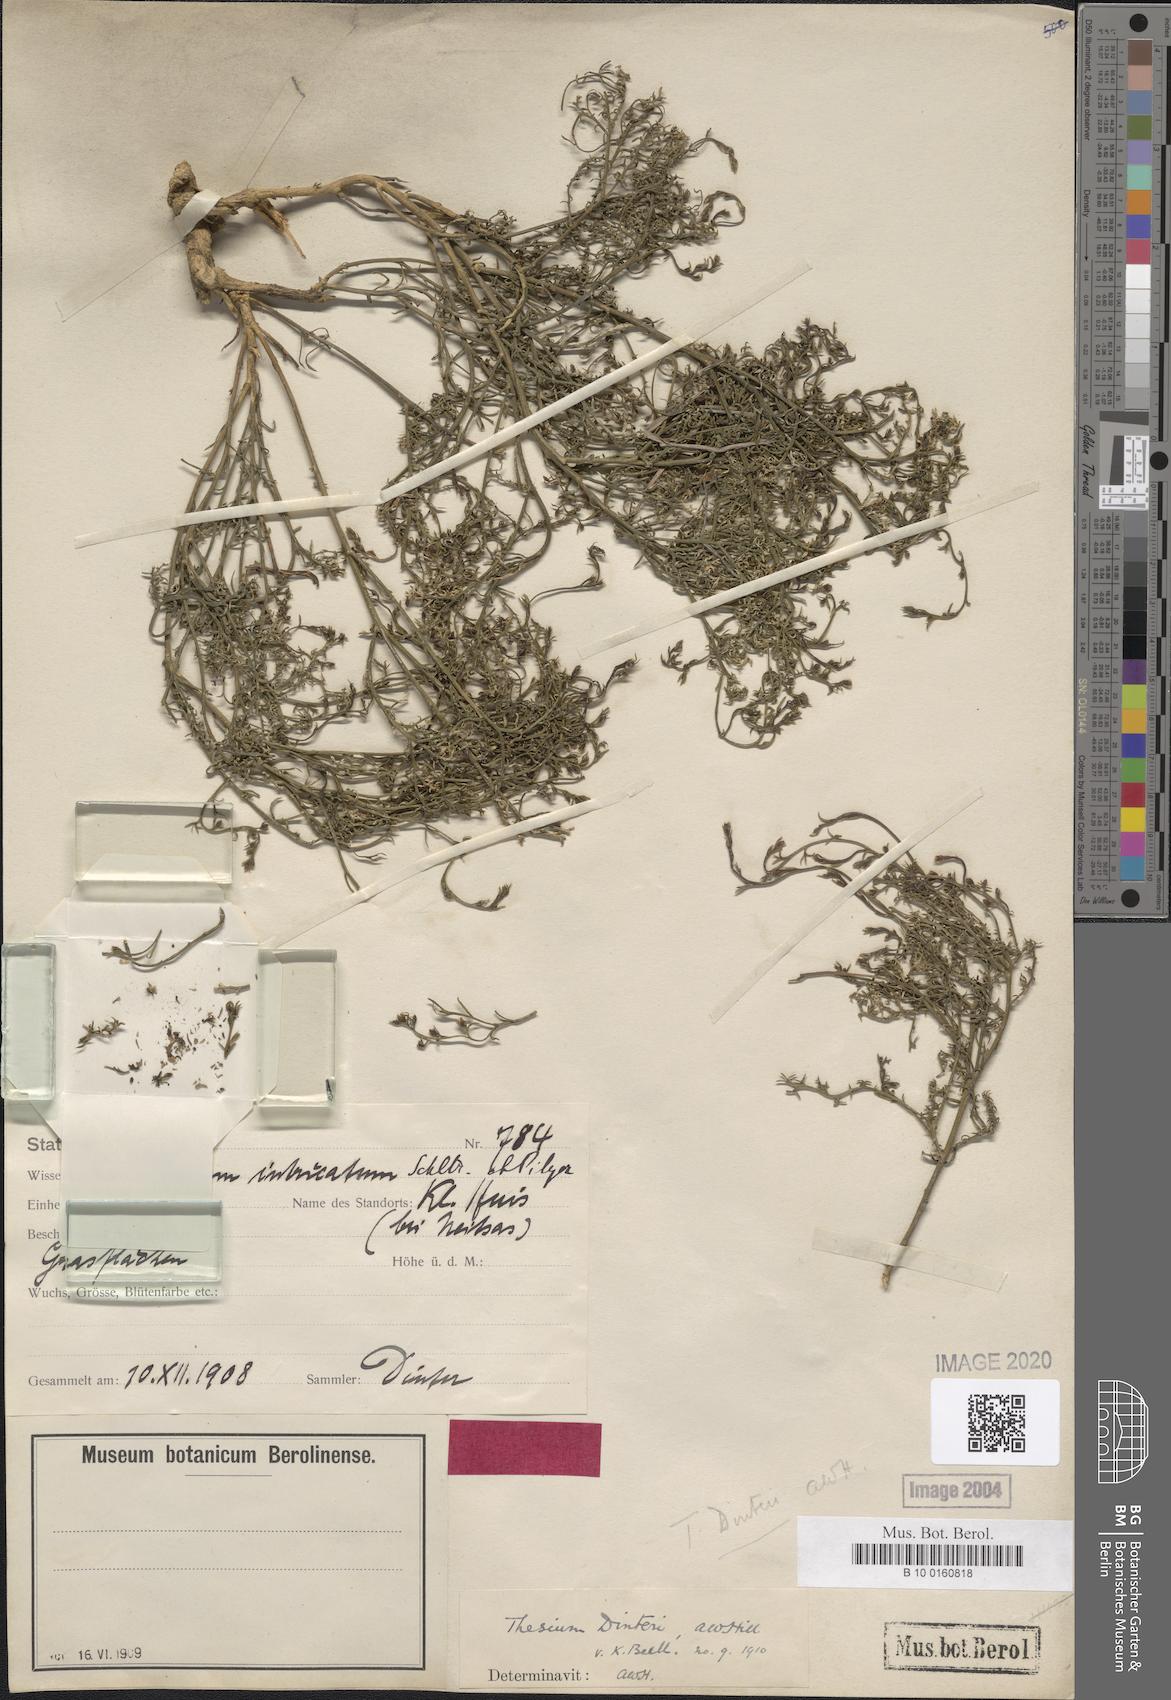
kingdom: Plantae
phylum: Tracheophyta
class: Magnoliopsida
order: Santalales
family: Thesiaceae
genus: Thesium
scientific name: Thesium megalocarpum
